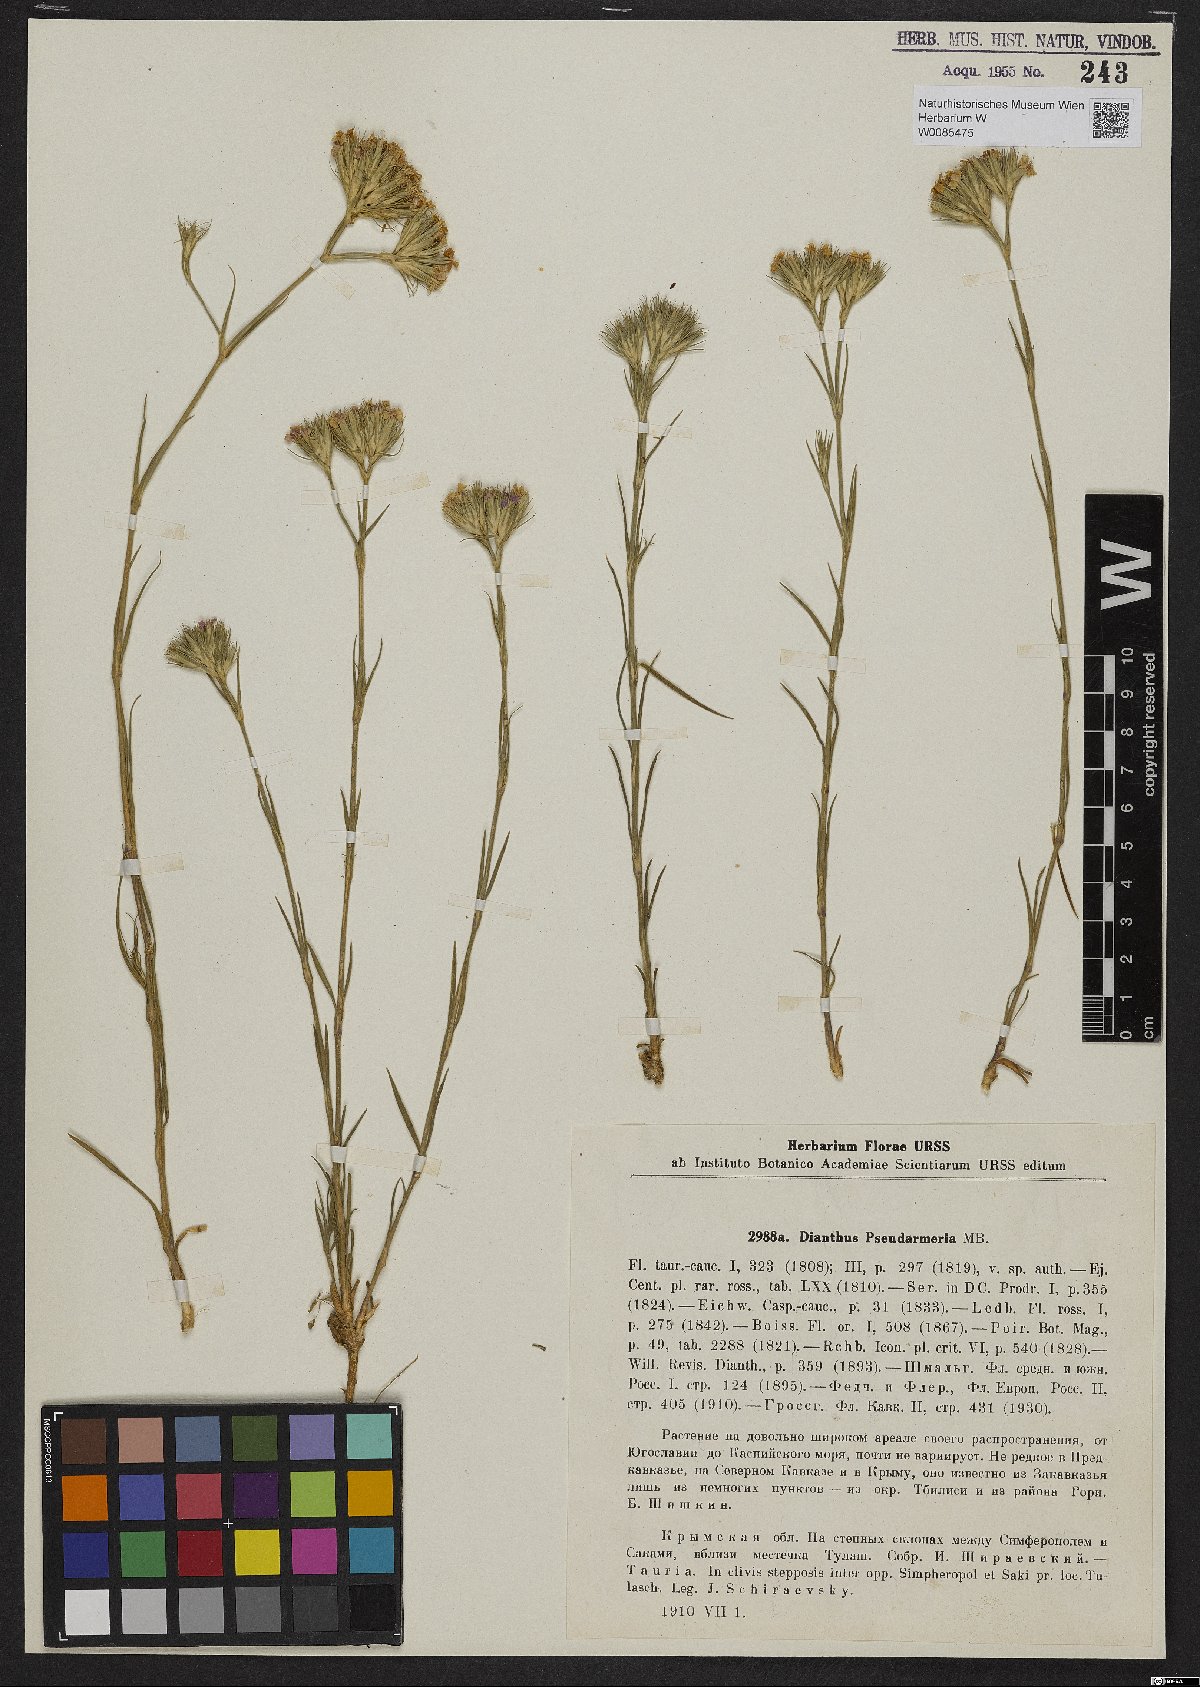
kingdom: Plantae
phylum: Tracheophyta
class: Magnoliopsida
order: Caryophyllales
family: Caryophyllaceae
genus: Dianthus
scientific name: Dianthus pseudarmeria
